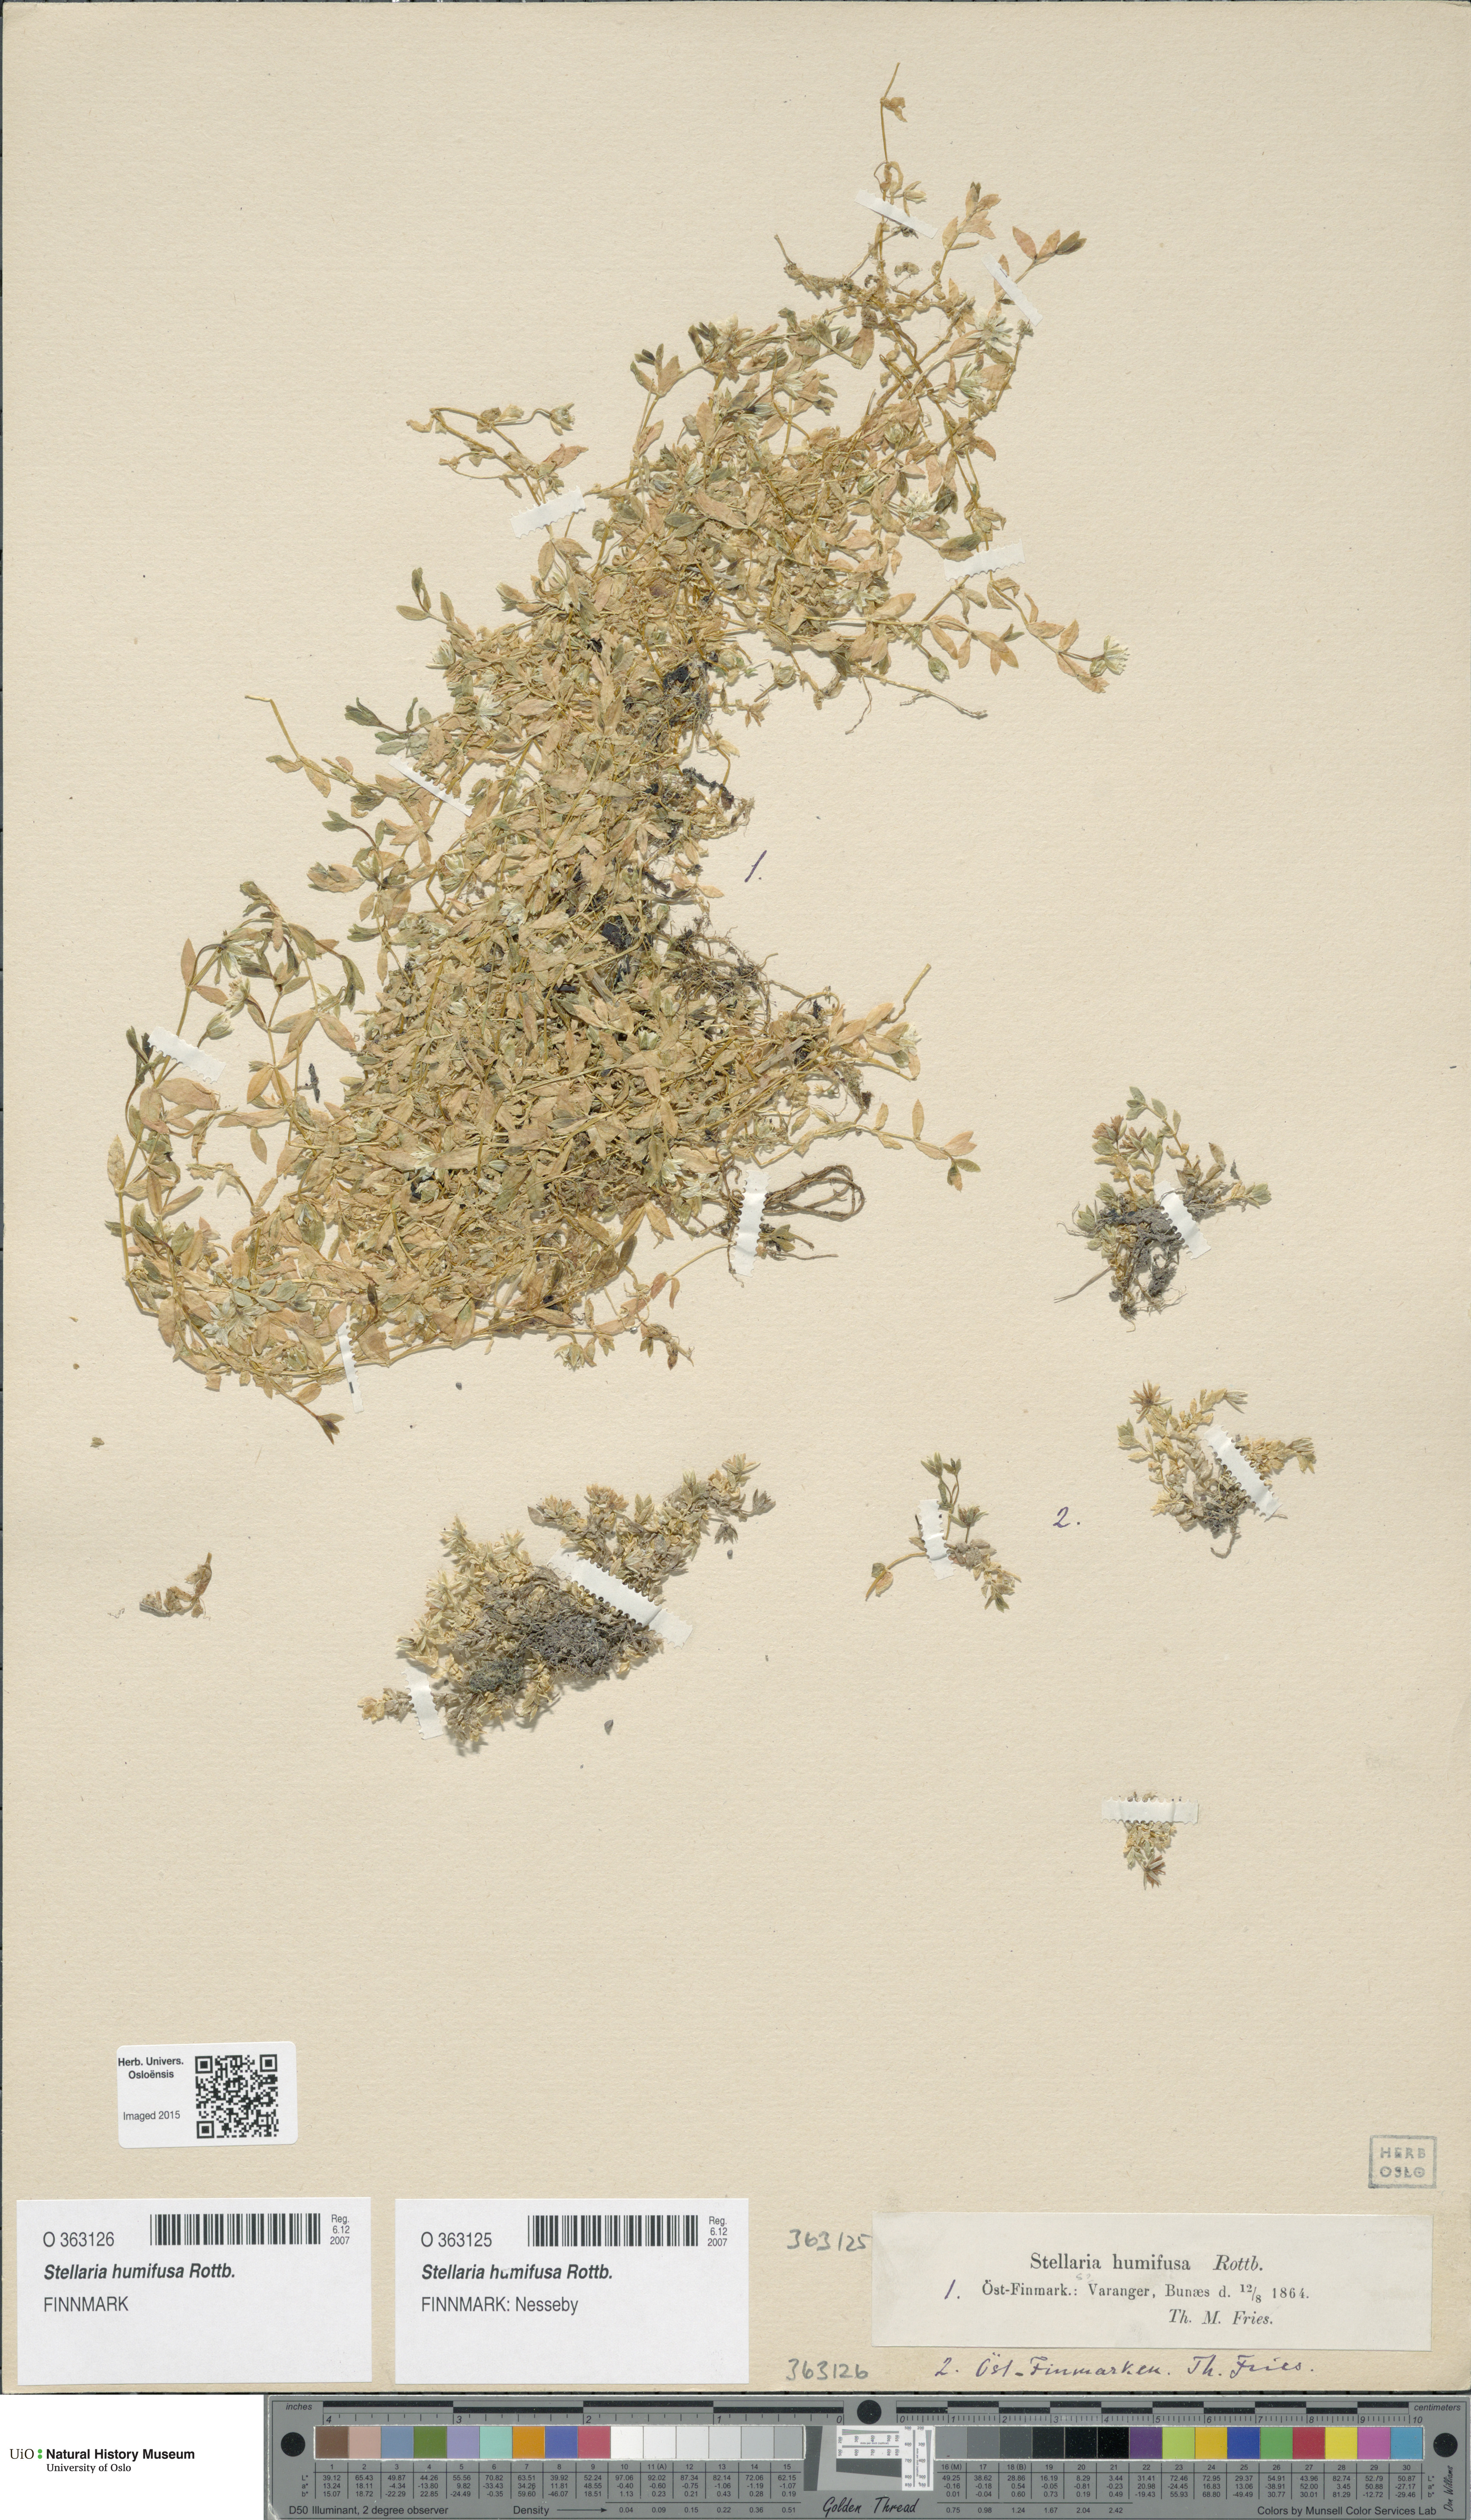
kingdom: Plantae
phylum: Tracheophyta
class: Magnoliopsida
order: Caryophyllales
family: Caryophyllaceae
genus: Stellaria
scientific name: Stellaria humifusa
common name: Creeping starwort
